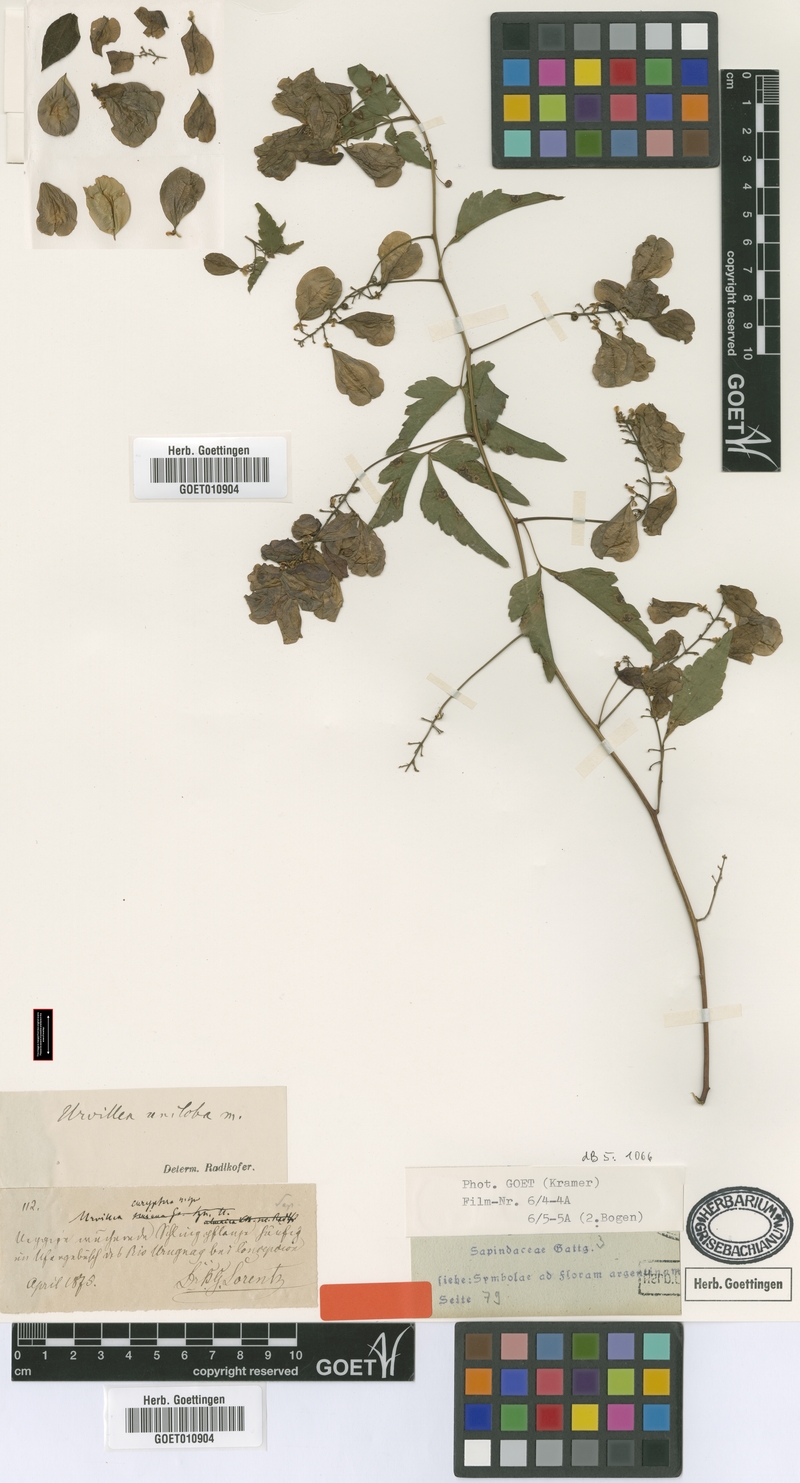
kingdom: Plantae
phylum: Tracheophyta
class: Magnoliopsida
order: Sapindales
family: Sapindaceae
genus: Urvillea
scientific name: Urvillea uniloba
